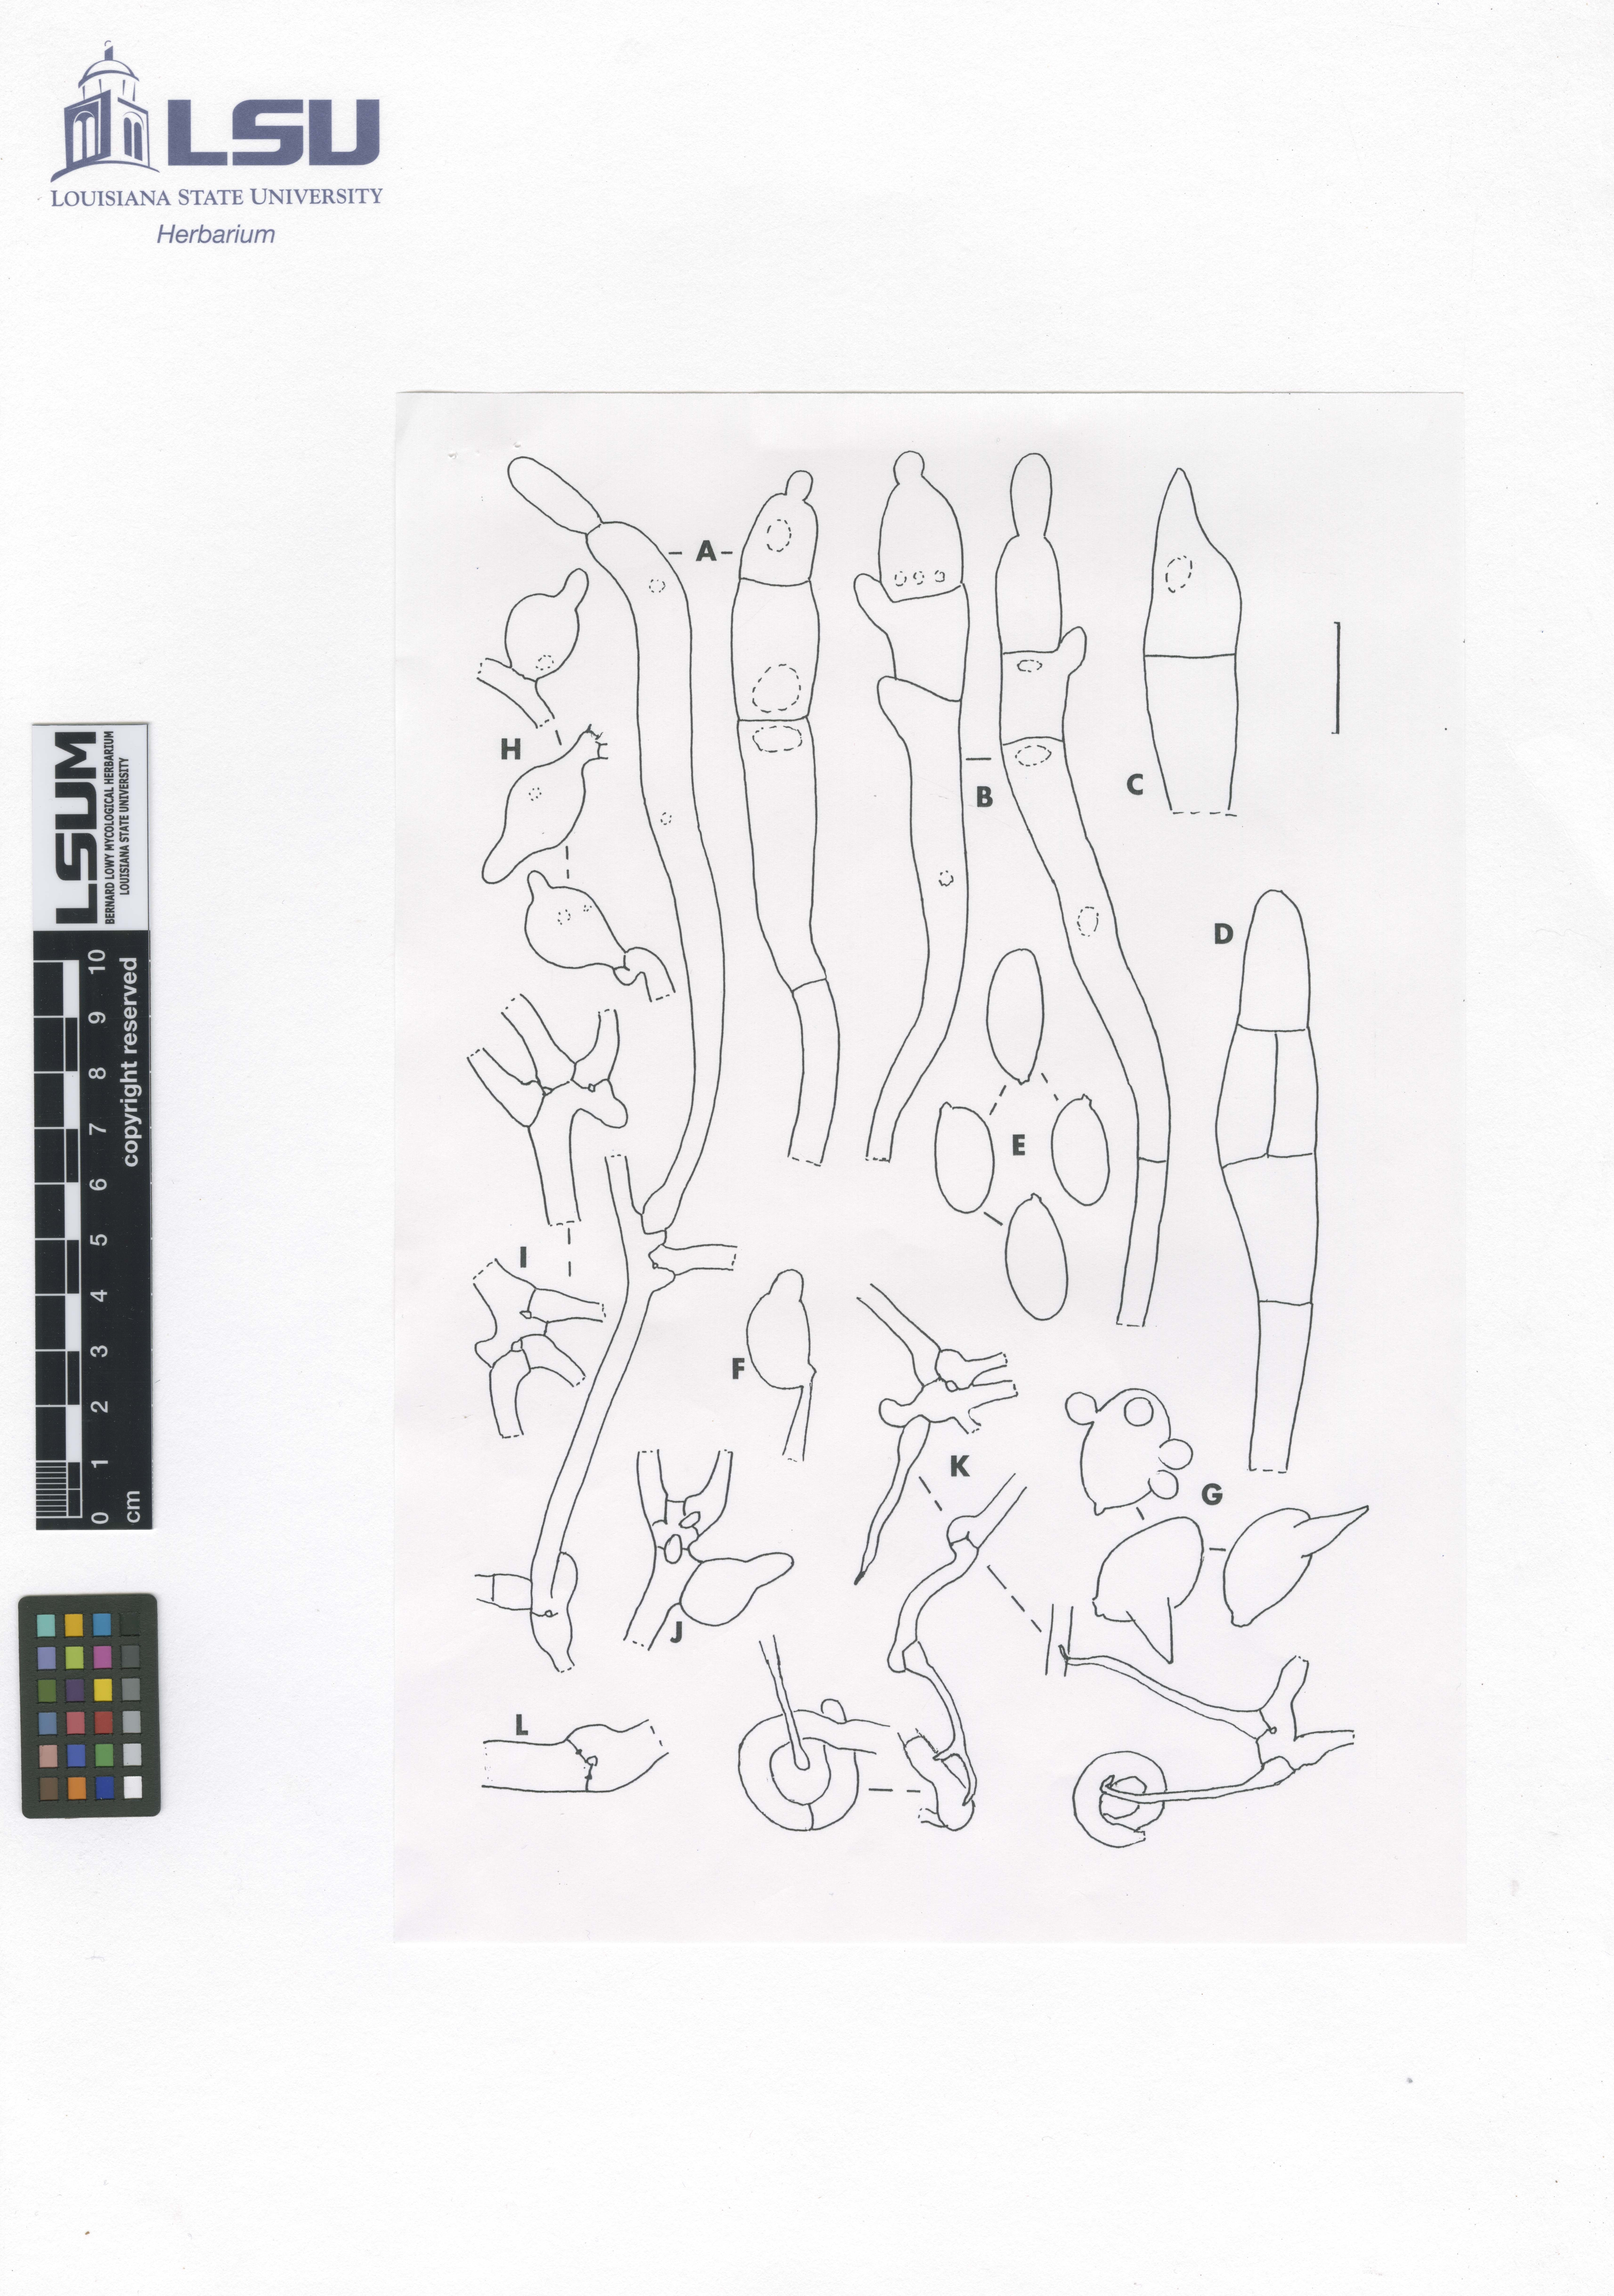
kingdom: Fungi
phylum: Basidiomycota
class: Pucciniomycetes
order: Platygloeales
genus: Phyllogloea
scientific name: Phyllogloea
